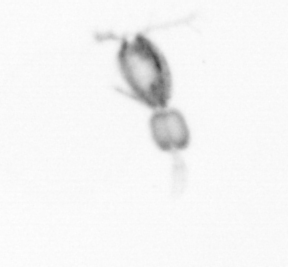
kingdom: Animalia
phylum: Arthropoda
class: Copepoda
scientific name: Copepoda
